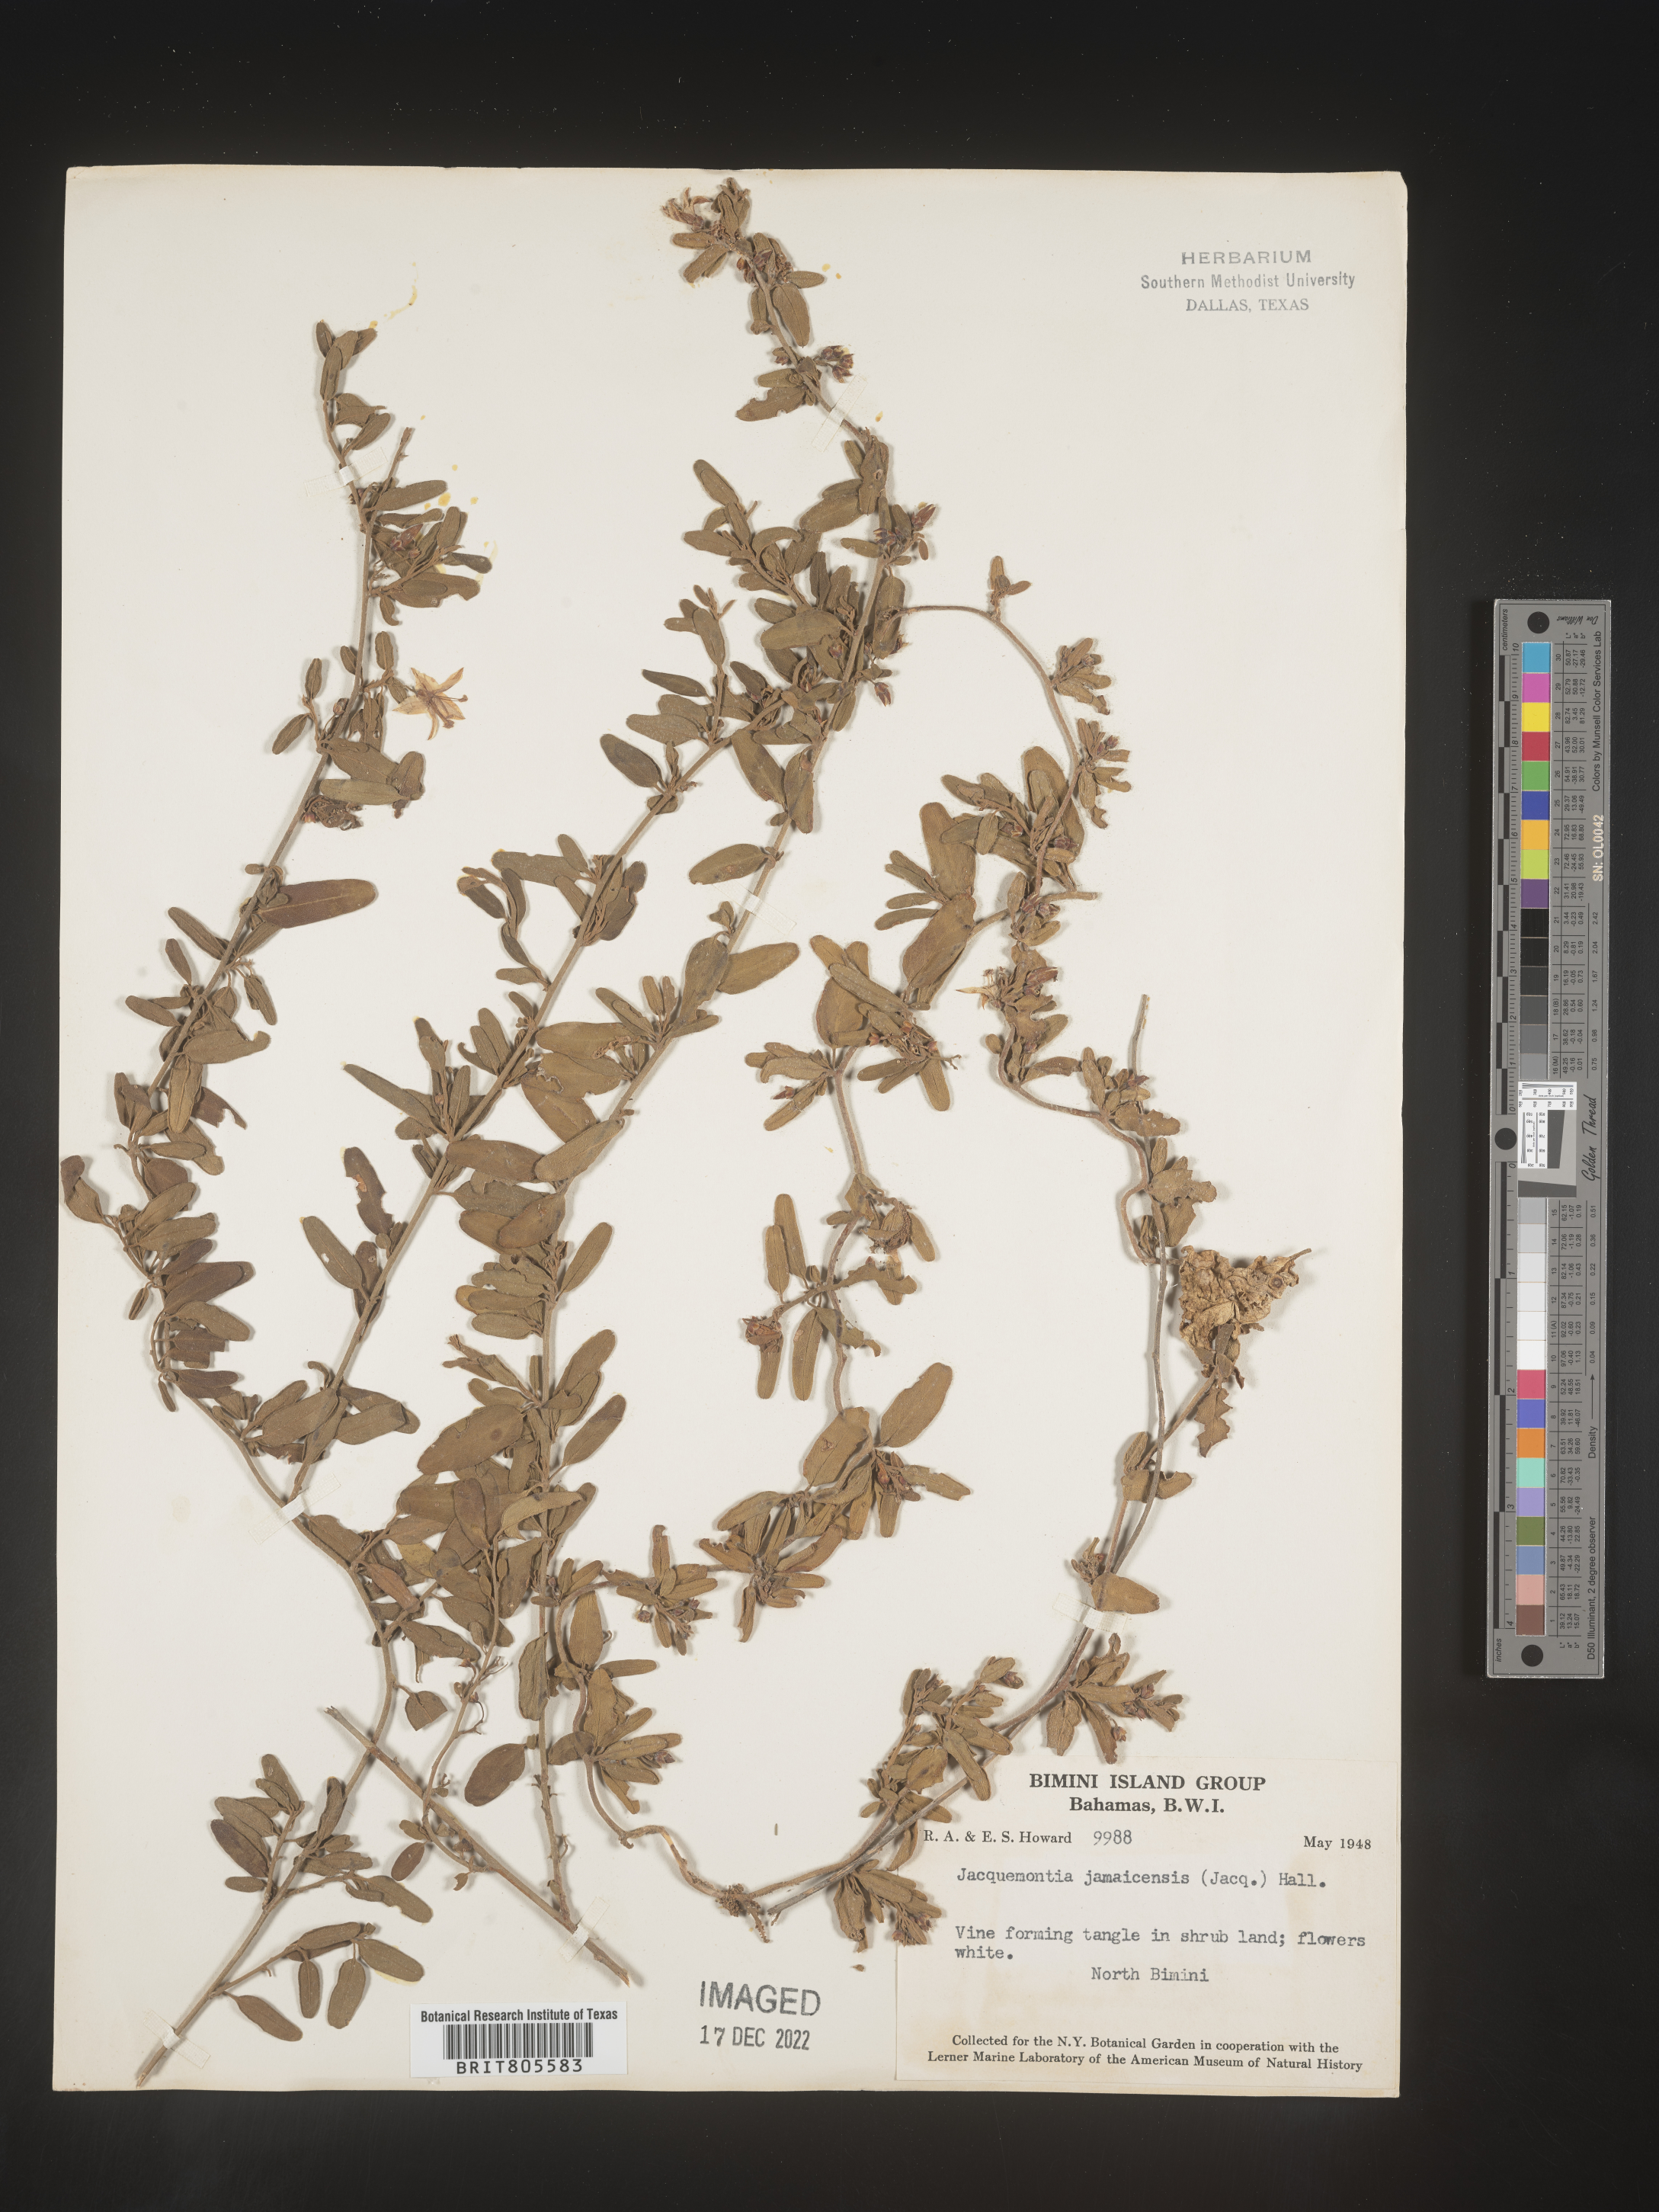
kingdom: Plantae
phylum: Tracheophyta
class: Magnoliopsida
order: Solanales
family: Convolvulaceae
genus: Jacquemontia
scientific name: Jacquemontia
